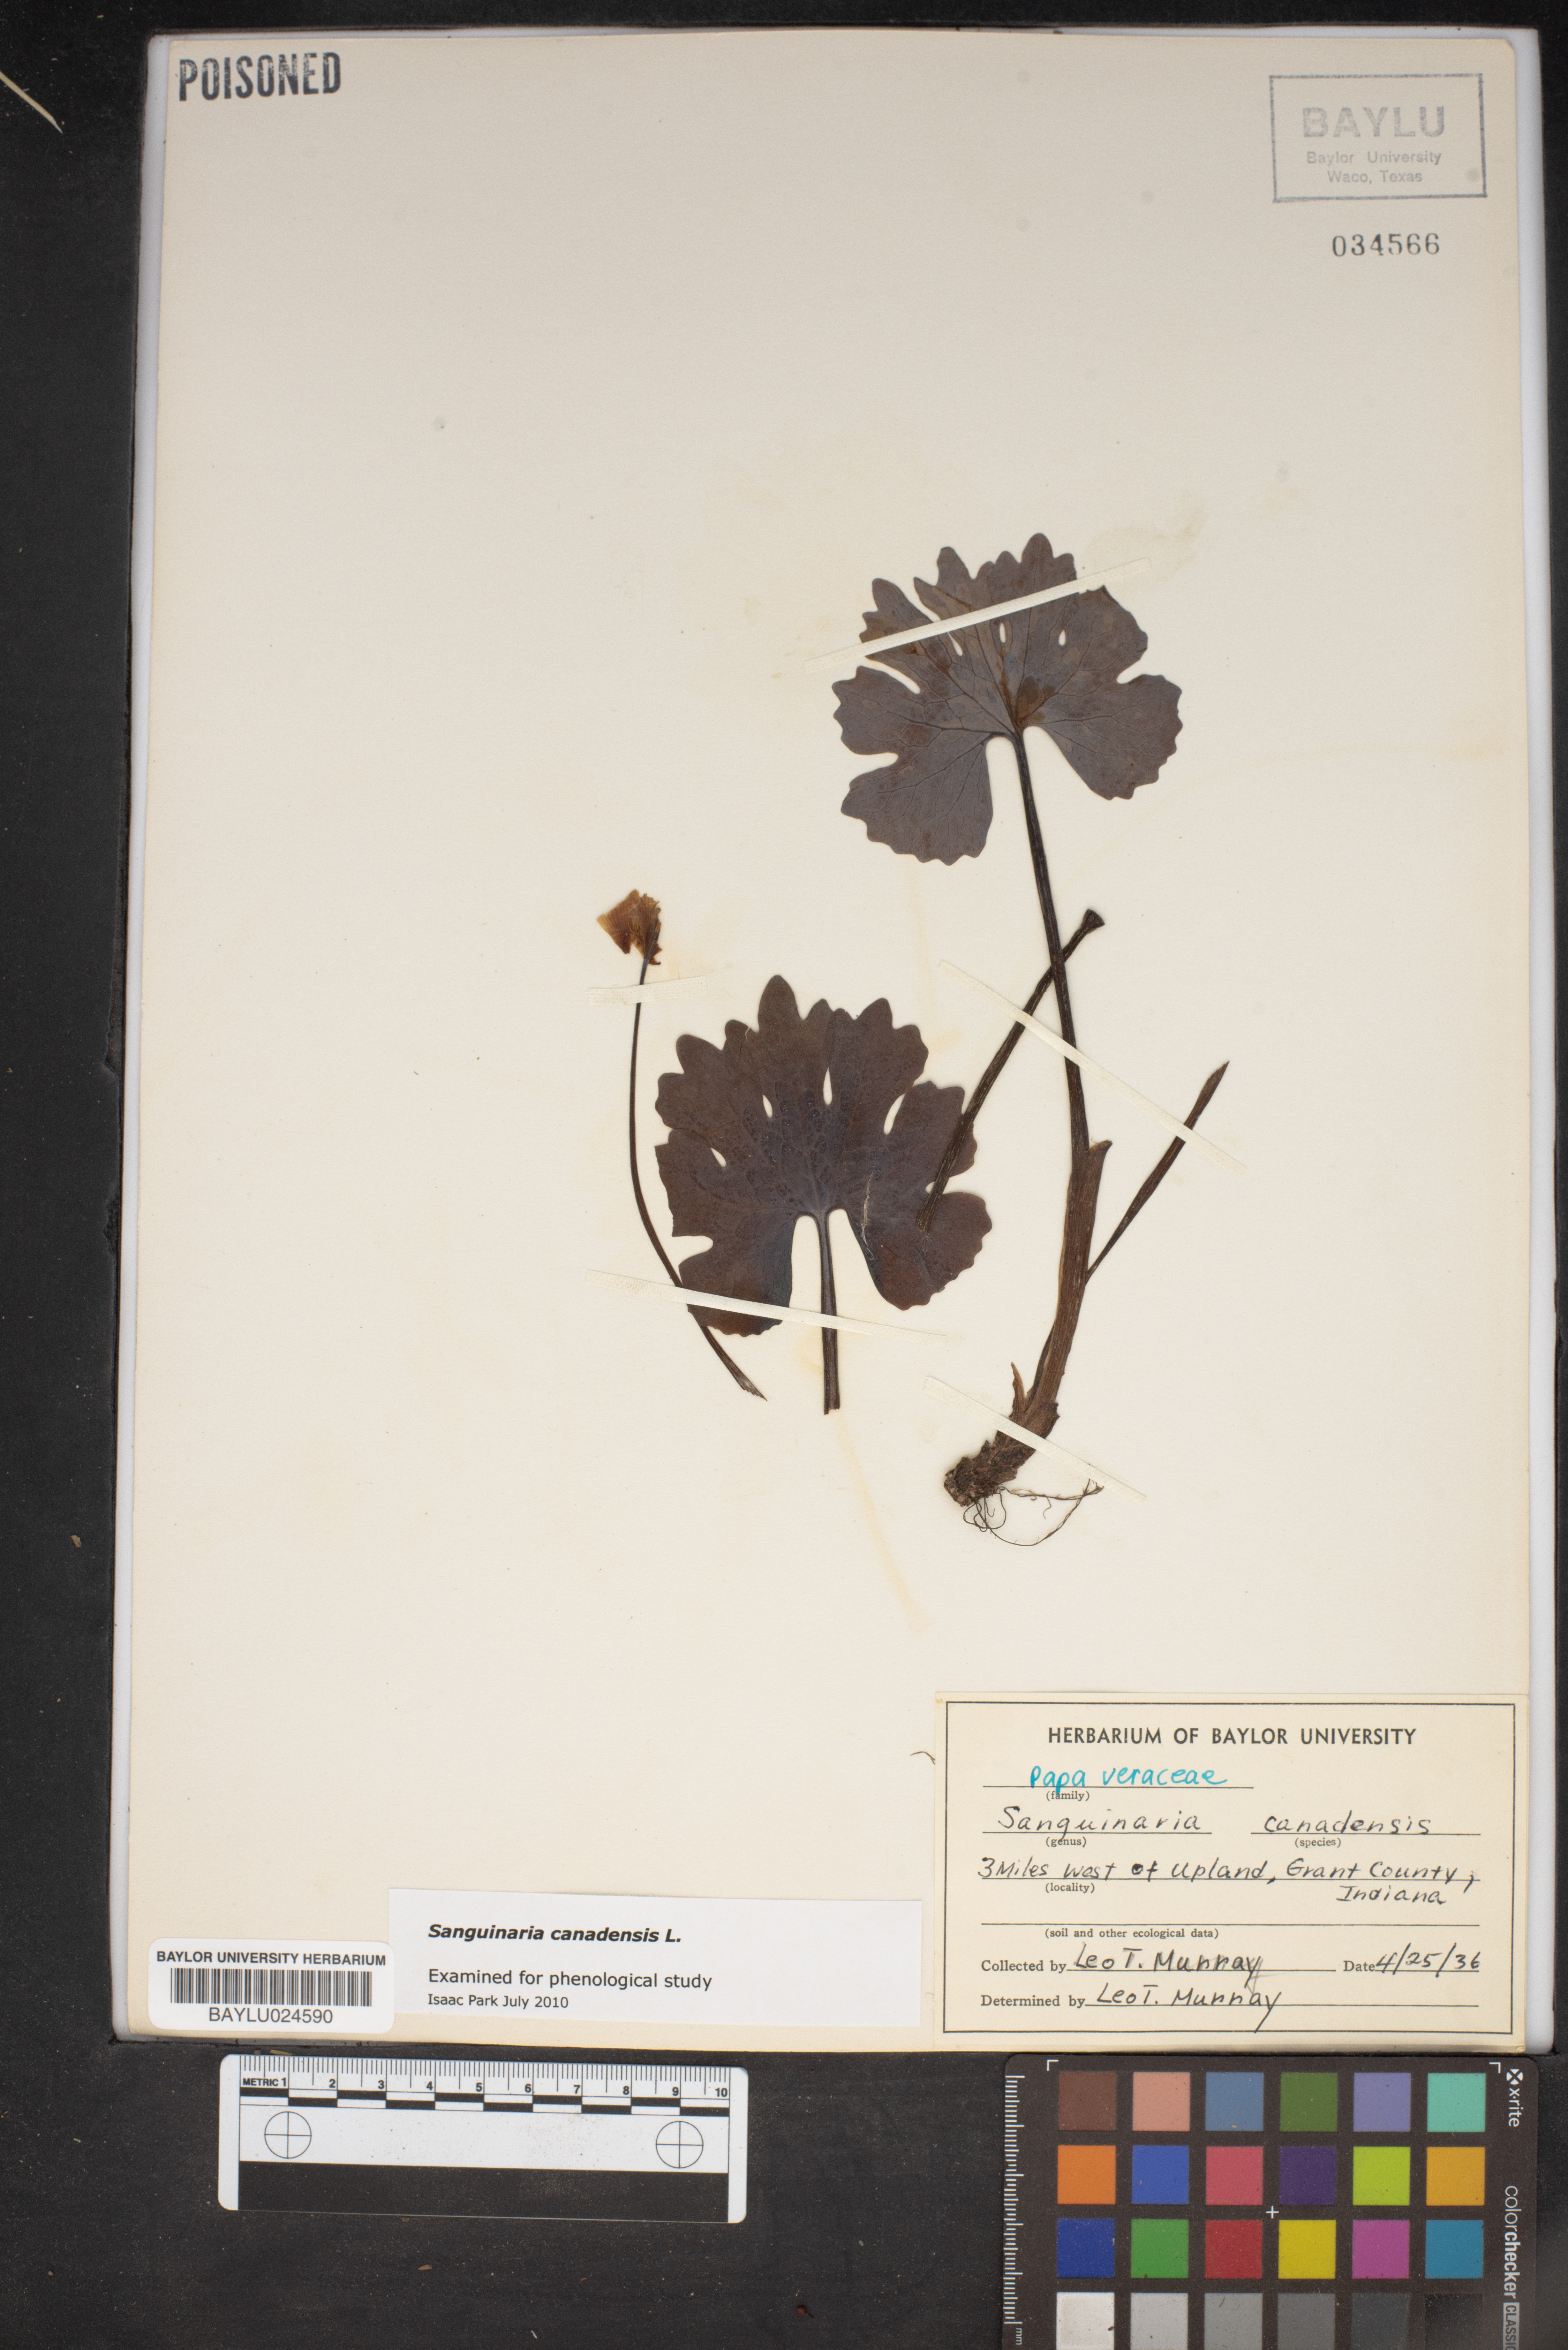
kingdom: Plantae
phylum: Tracheophyta
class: Magnoliopsida
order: Ranunculales
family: Papaveraceae
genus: Sanguinaria
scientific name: Sanguinaria canadensis
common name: Bloodroot
